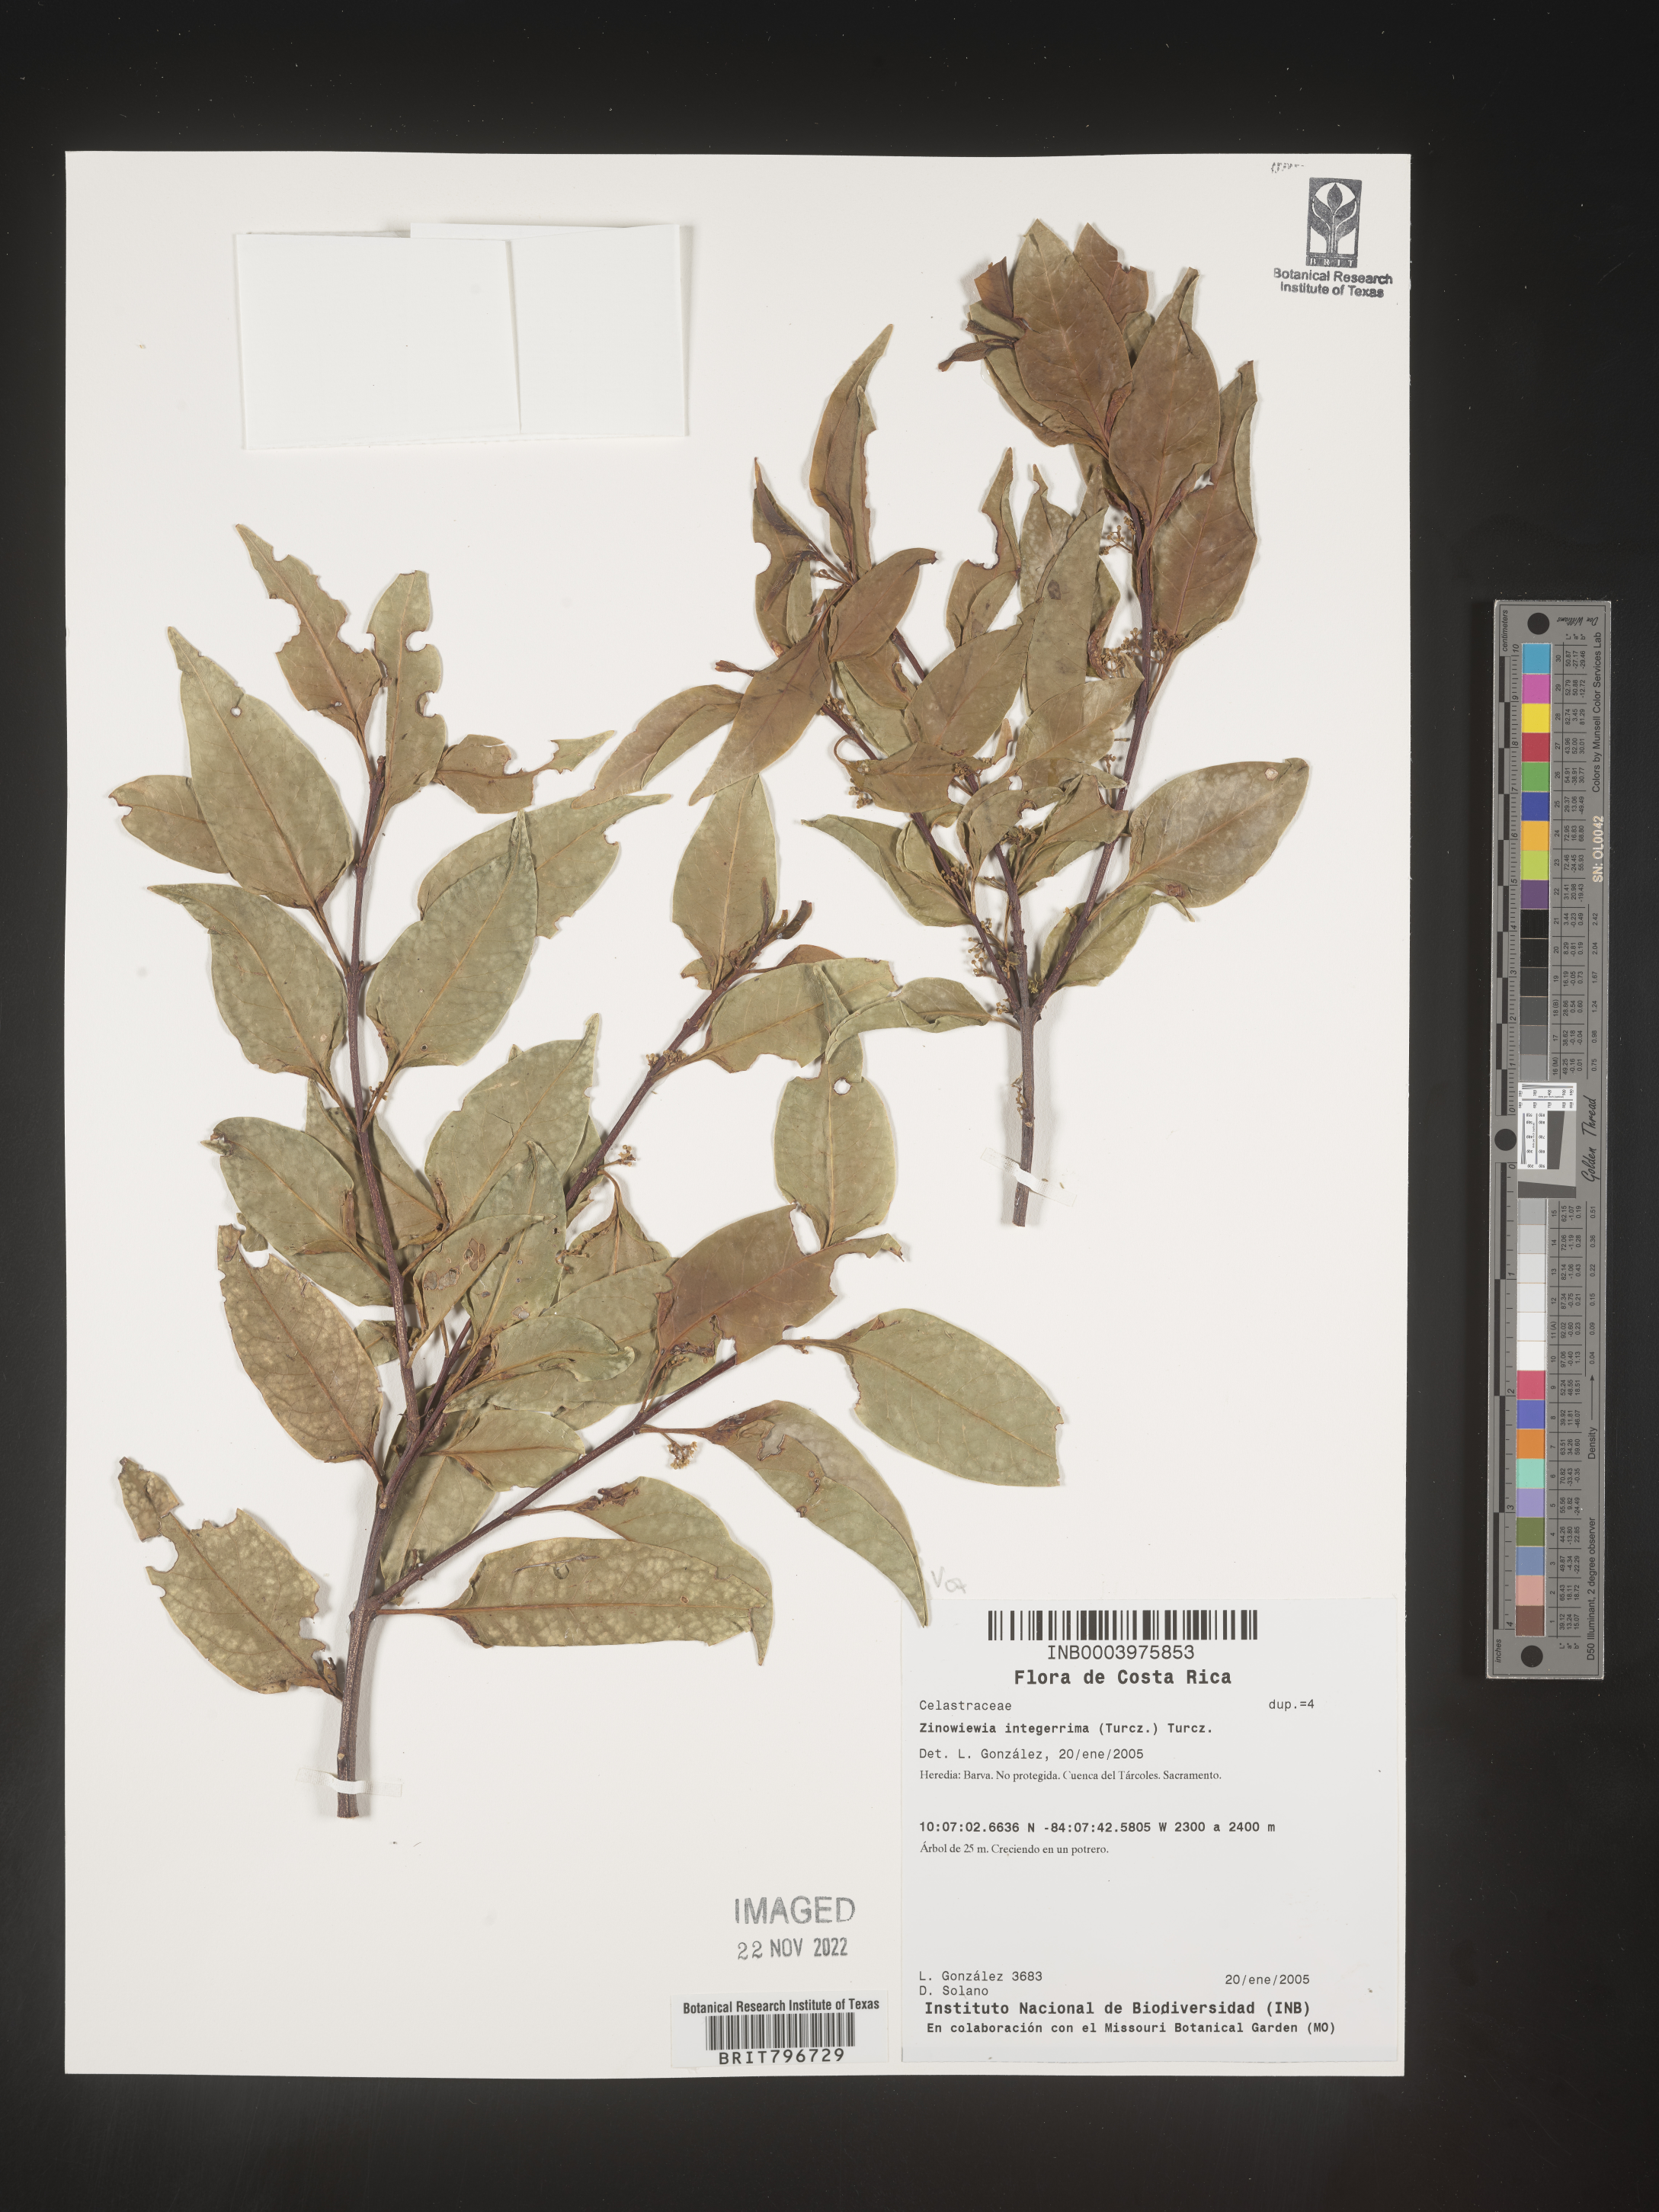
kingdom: Plantae
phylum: Tracheophyta
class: Magnoliopsida
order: Celastrales
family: Celastraceae
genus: Zinowiewia
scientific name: Zinowiewia
